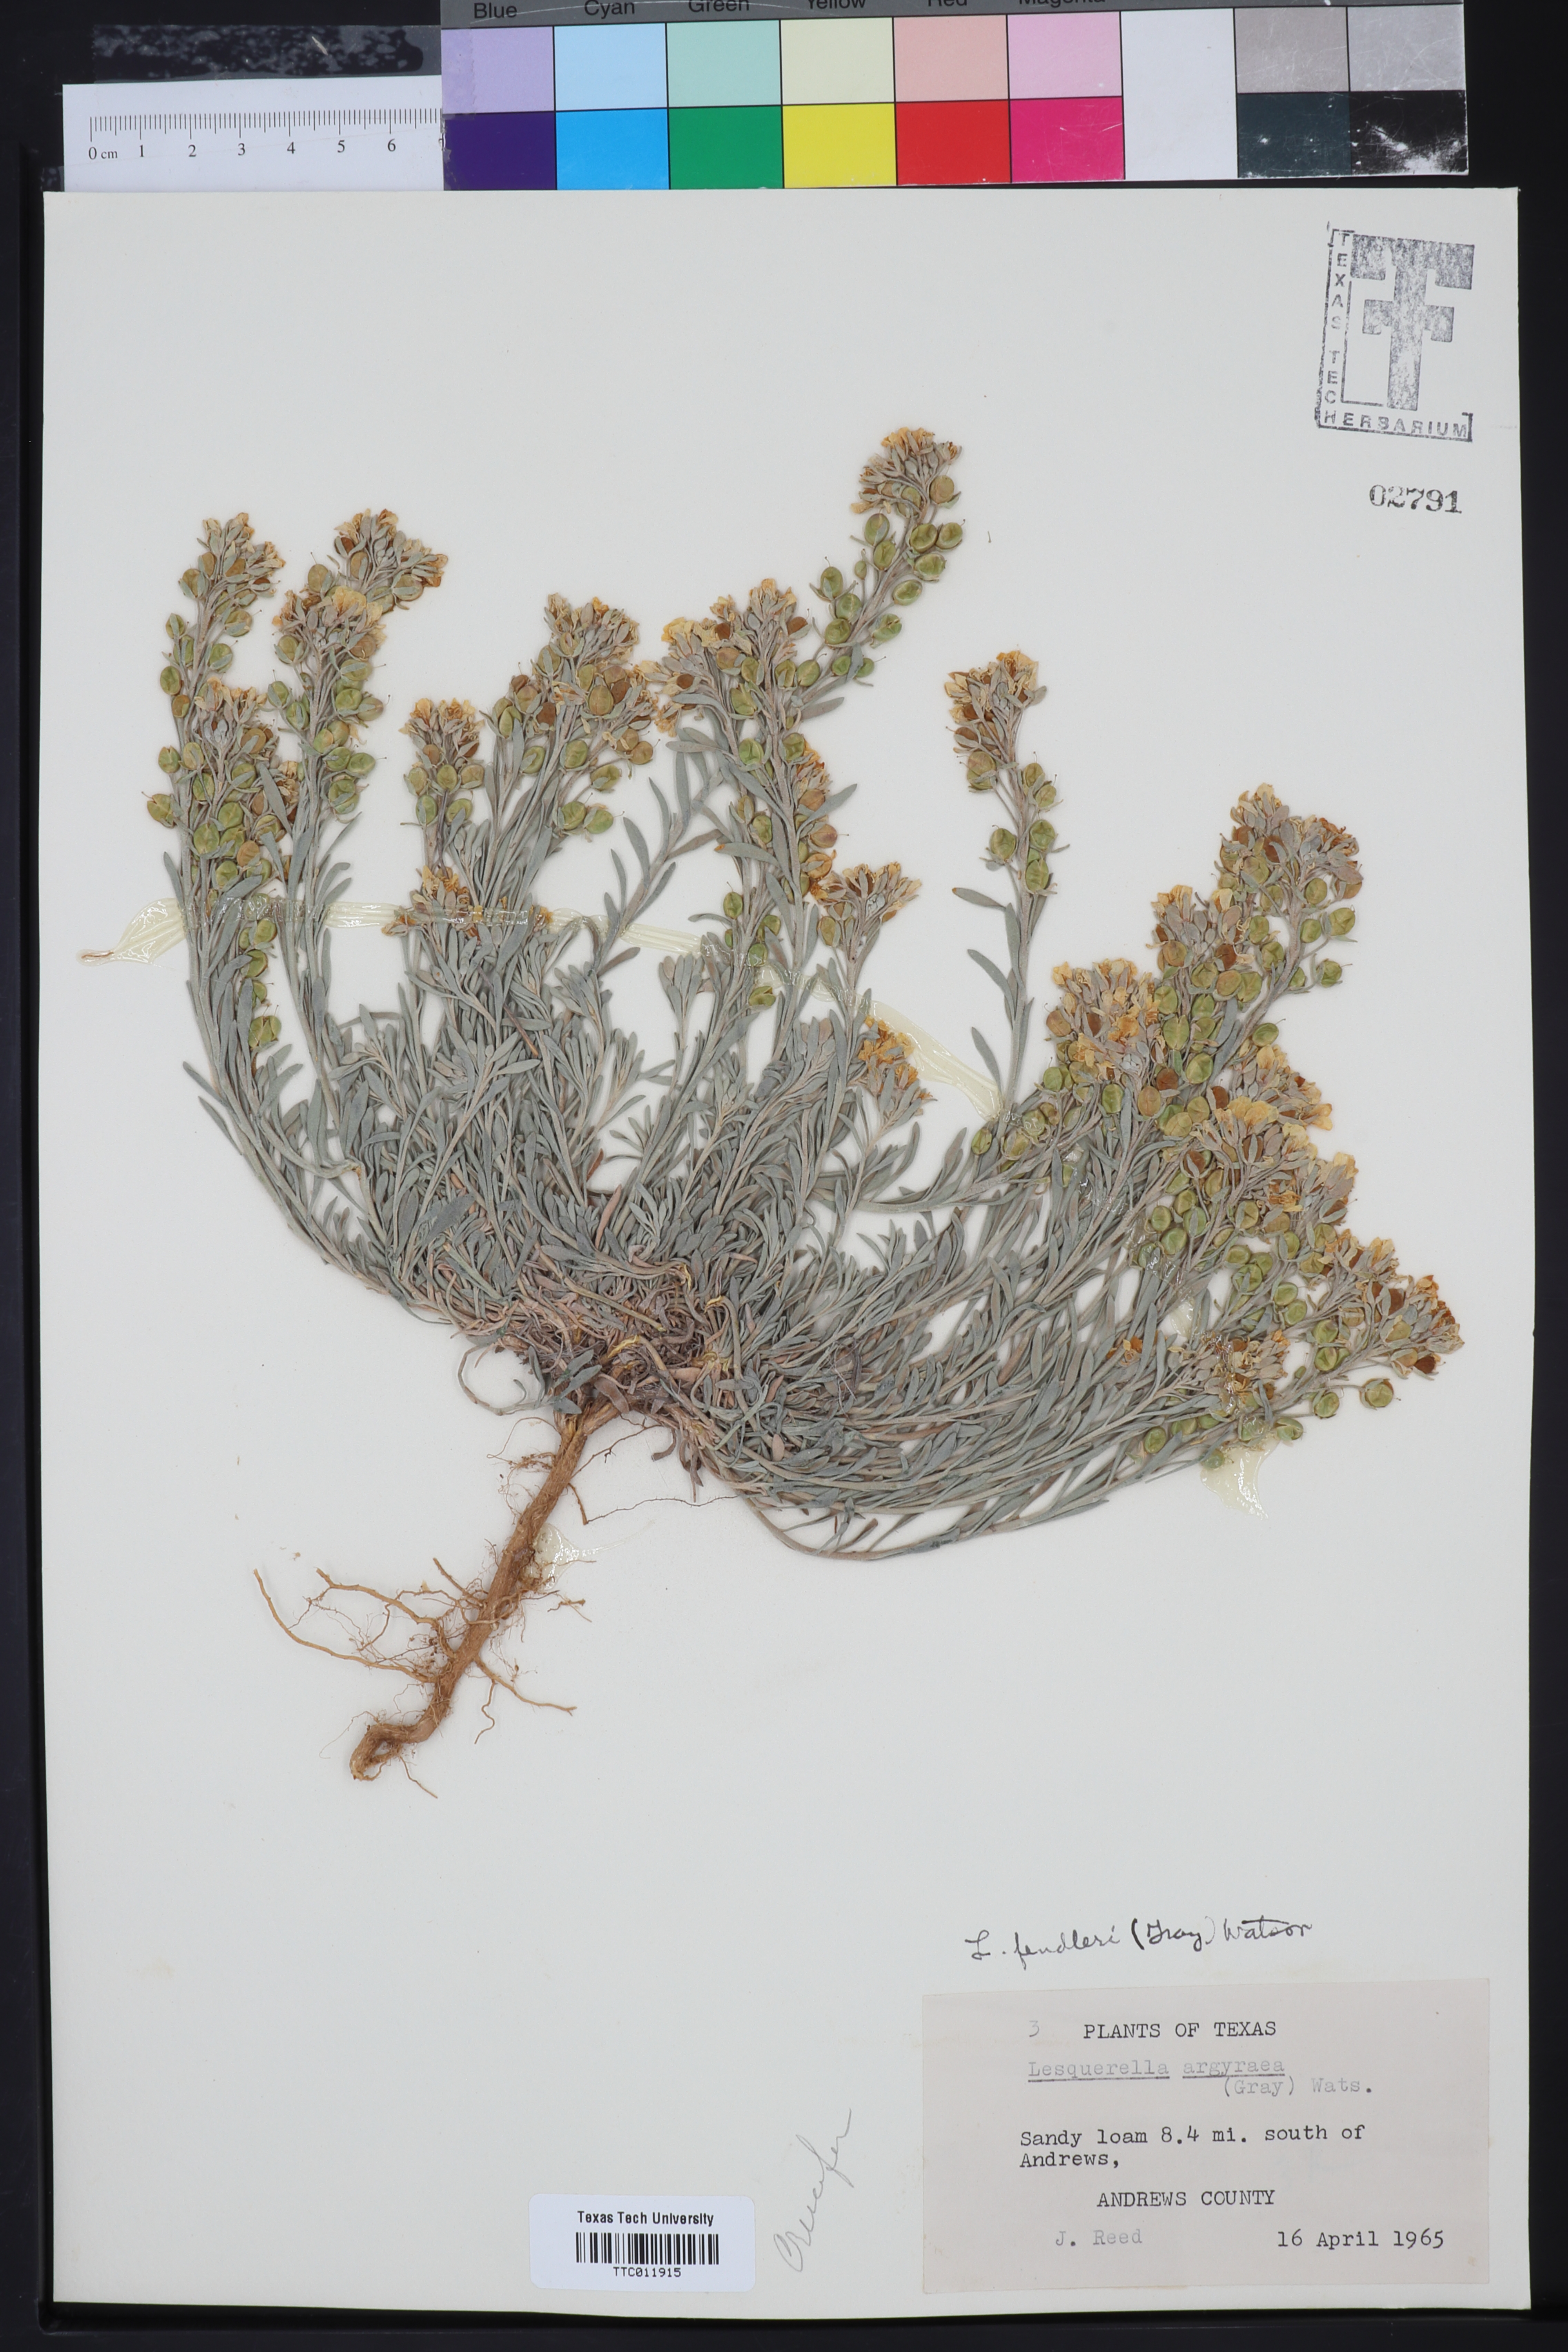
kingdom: Plantae
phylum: Tracheophyta
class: Magnoliopsida
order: Brassicales
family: Brassicaceae
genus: Physaria
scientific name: Physaria fendleri
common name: Fendler's bladderpod
